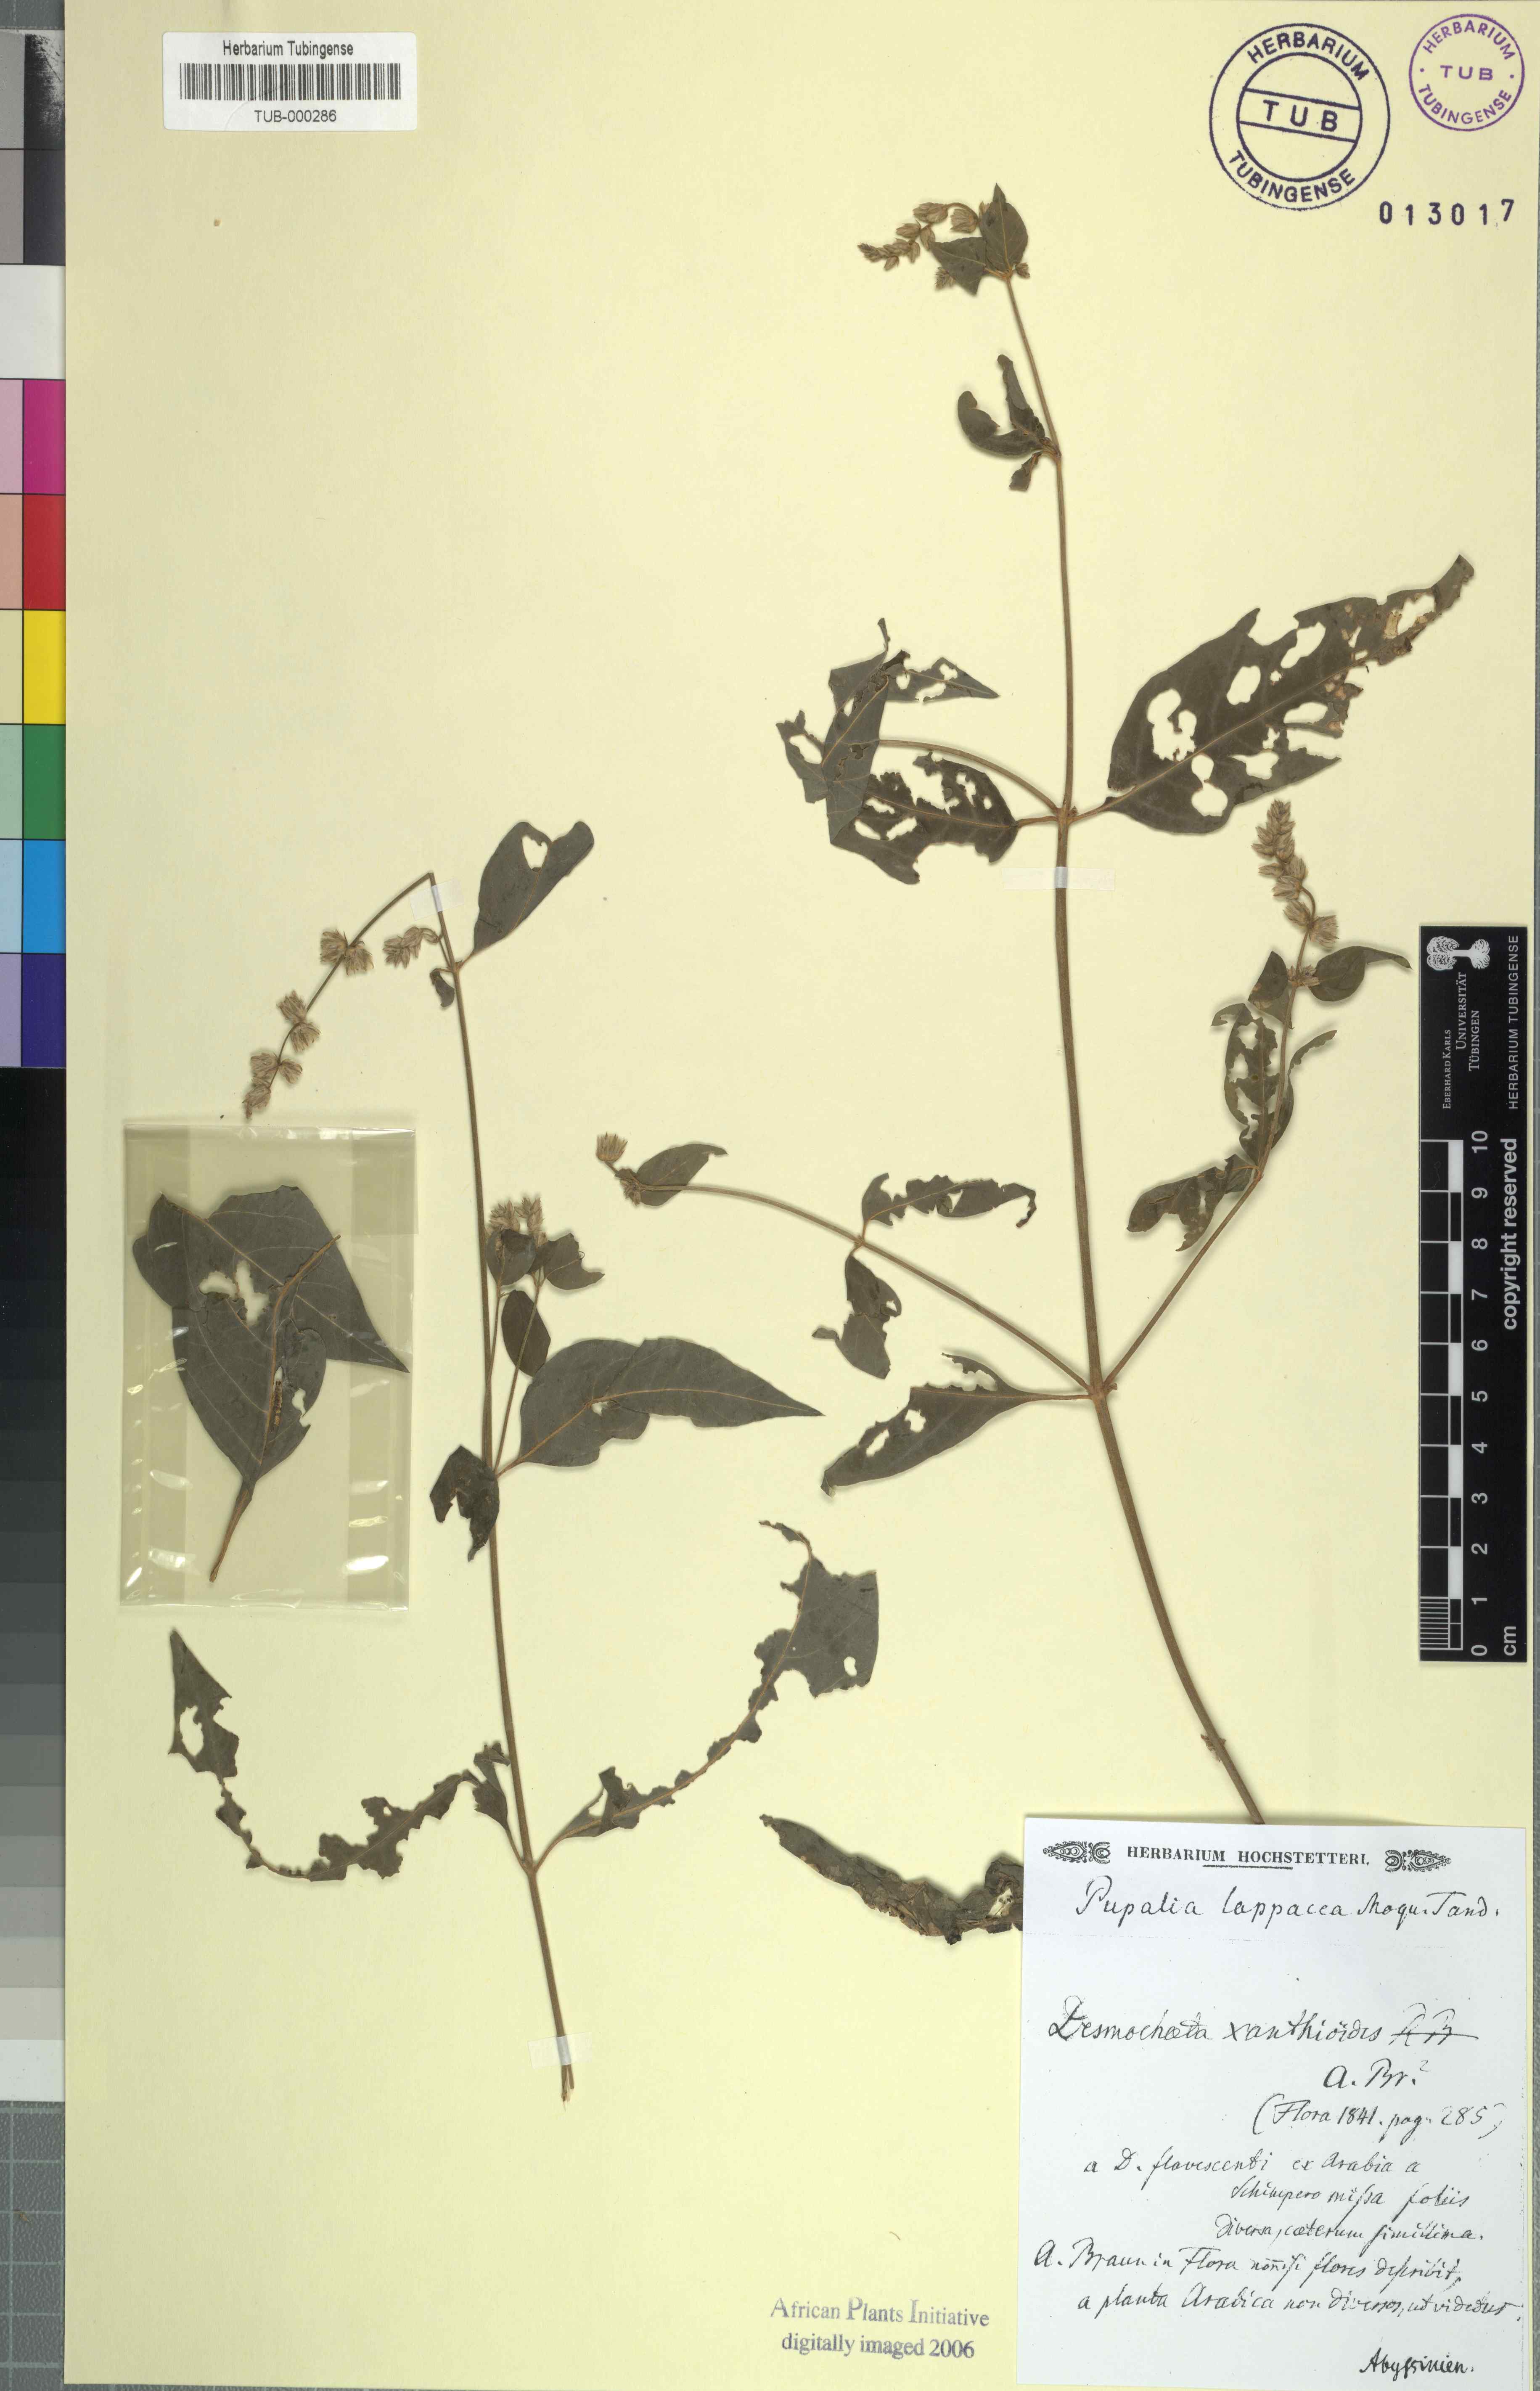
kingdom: Plantae
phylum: Tracheophyta
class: Magnoliopsida
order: Caryophyllales
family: Amaranthaceae
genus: Pupalia
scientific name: Pupalia lappacea
